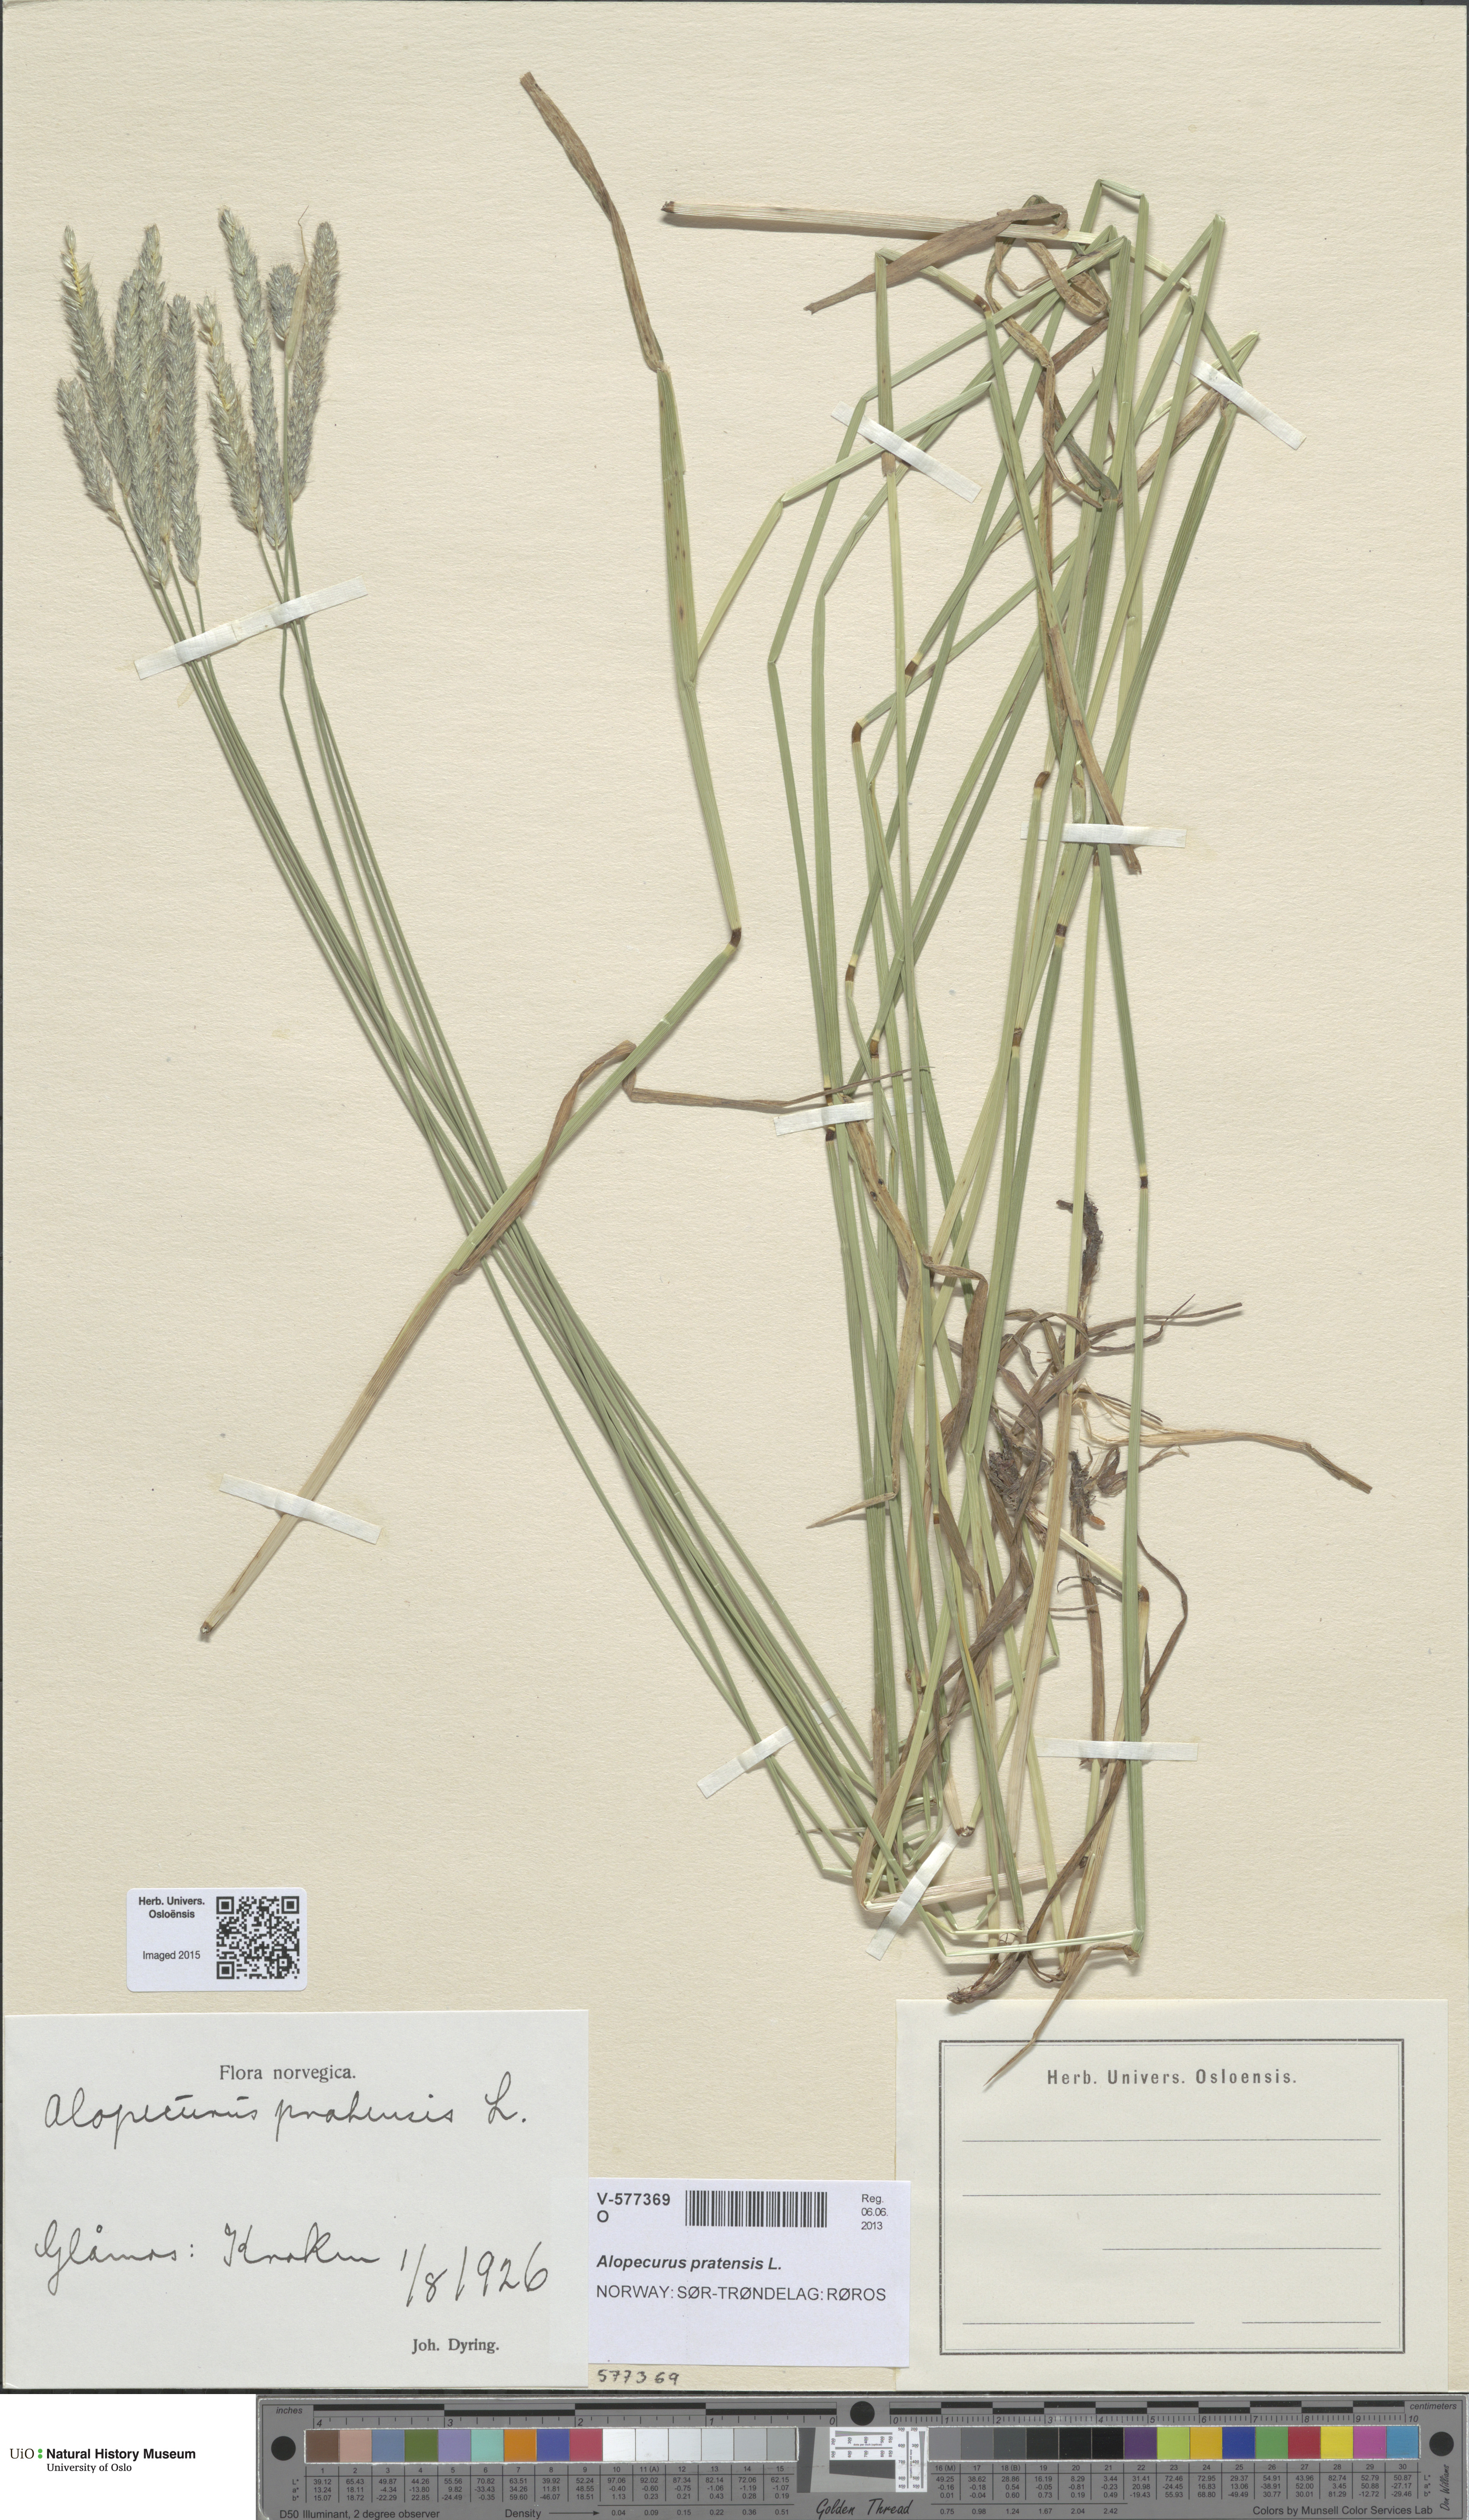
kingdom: Plantae
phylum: Tracheophyta
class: Liliopsida
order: Poales
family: Poaceae
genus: Alopecurus
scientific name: Alopecurus pratensis
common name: Meadow foxtail
